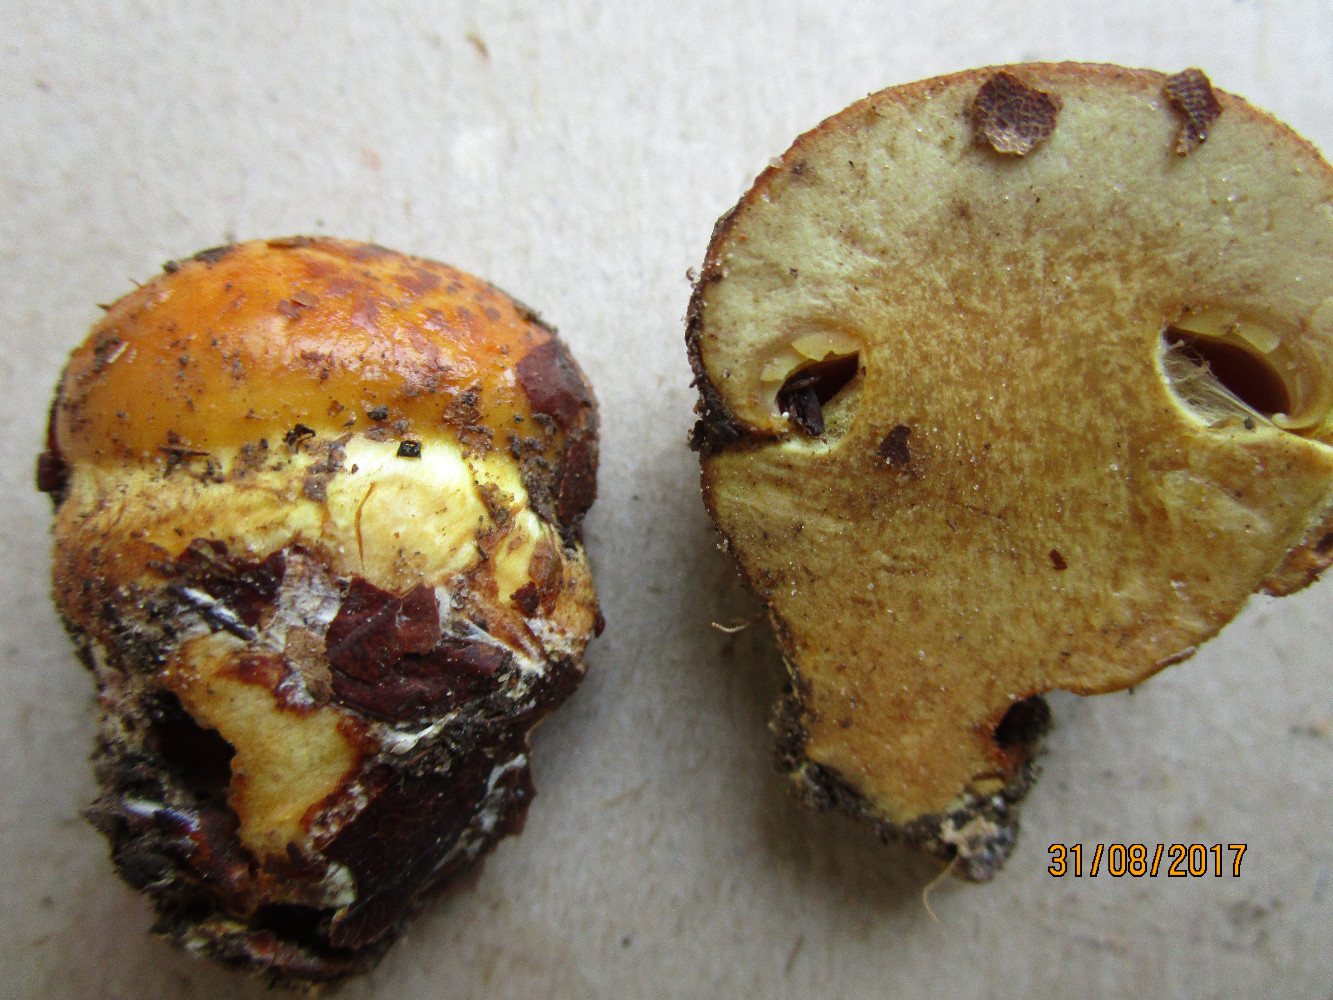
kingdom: Fungi
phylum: Basidiomycota
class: Agaricomycetes
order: Agaricales
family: Cortinariaceae
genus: Calonarius
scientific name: Calonarius olearioides
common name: safran-slørhat
